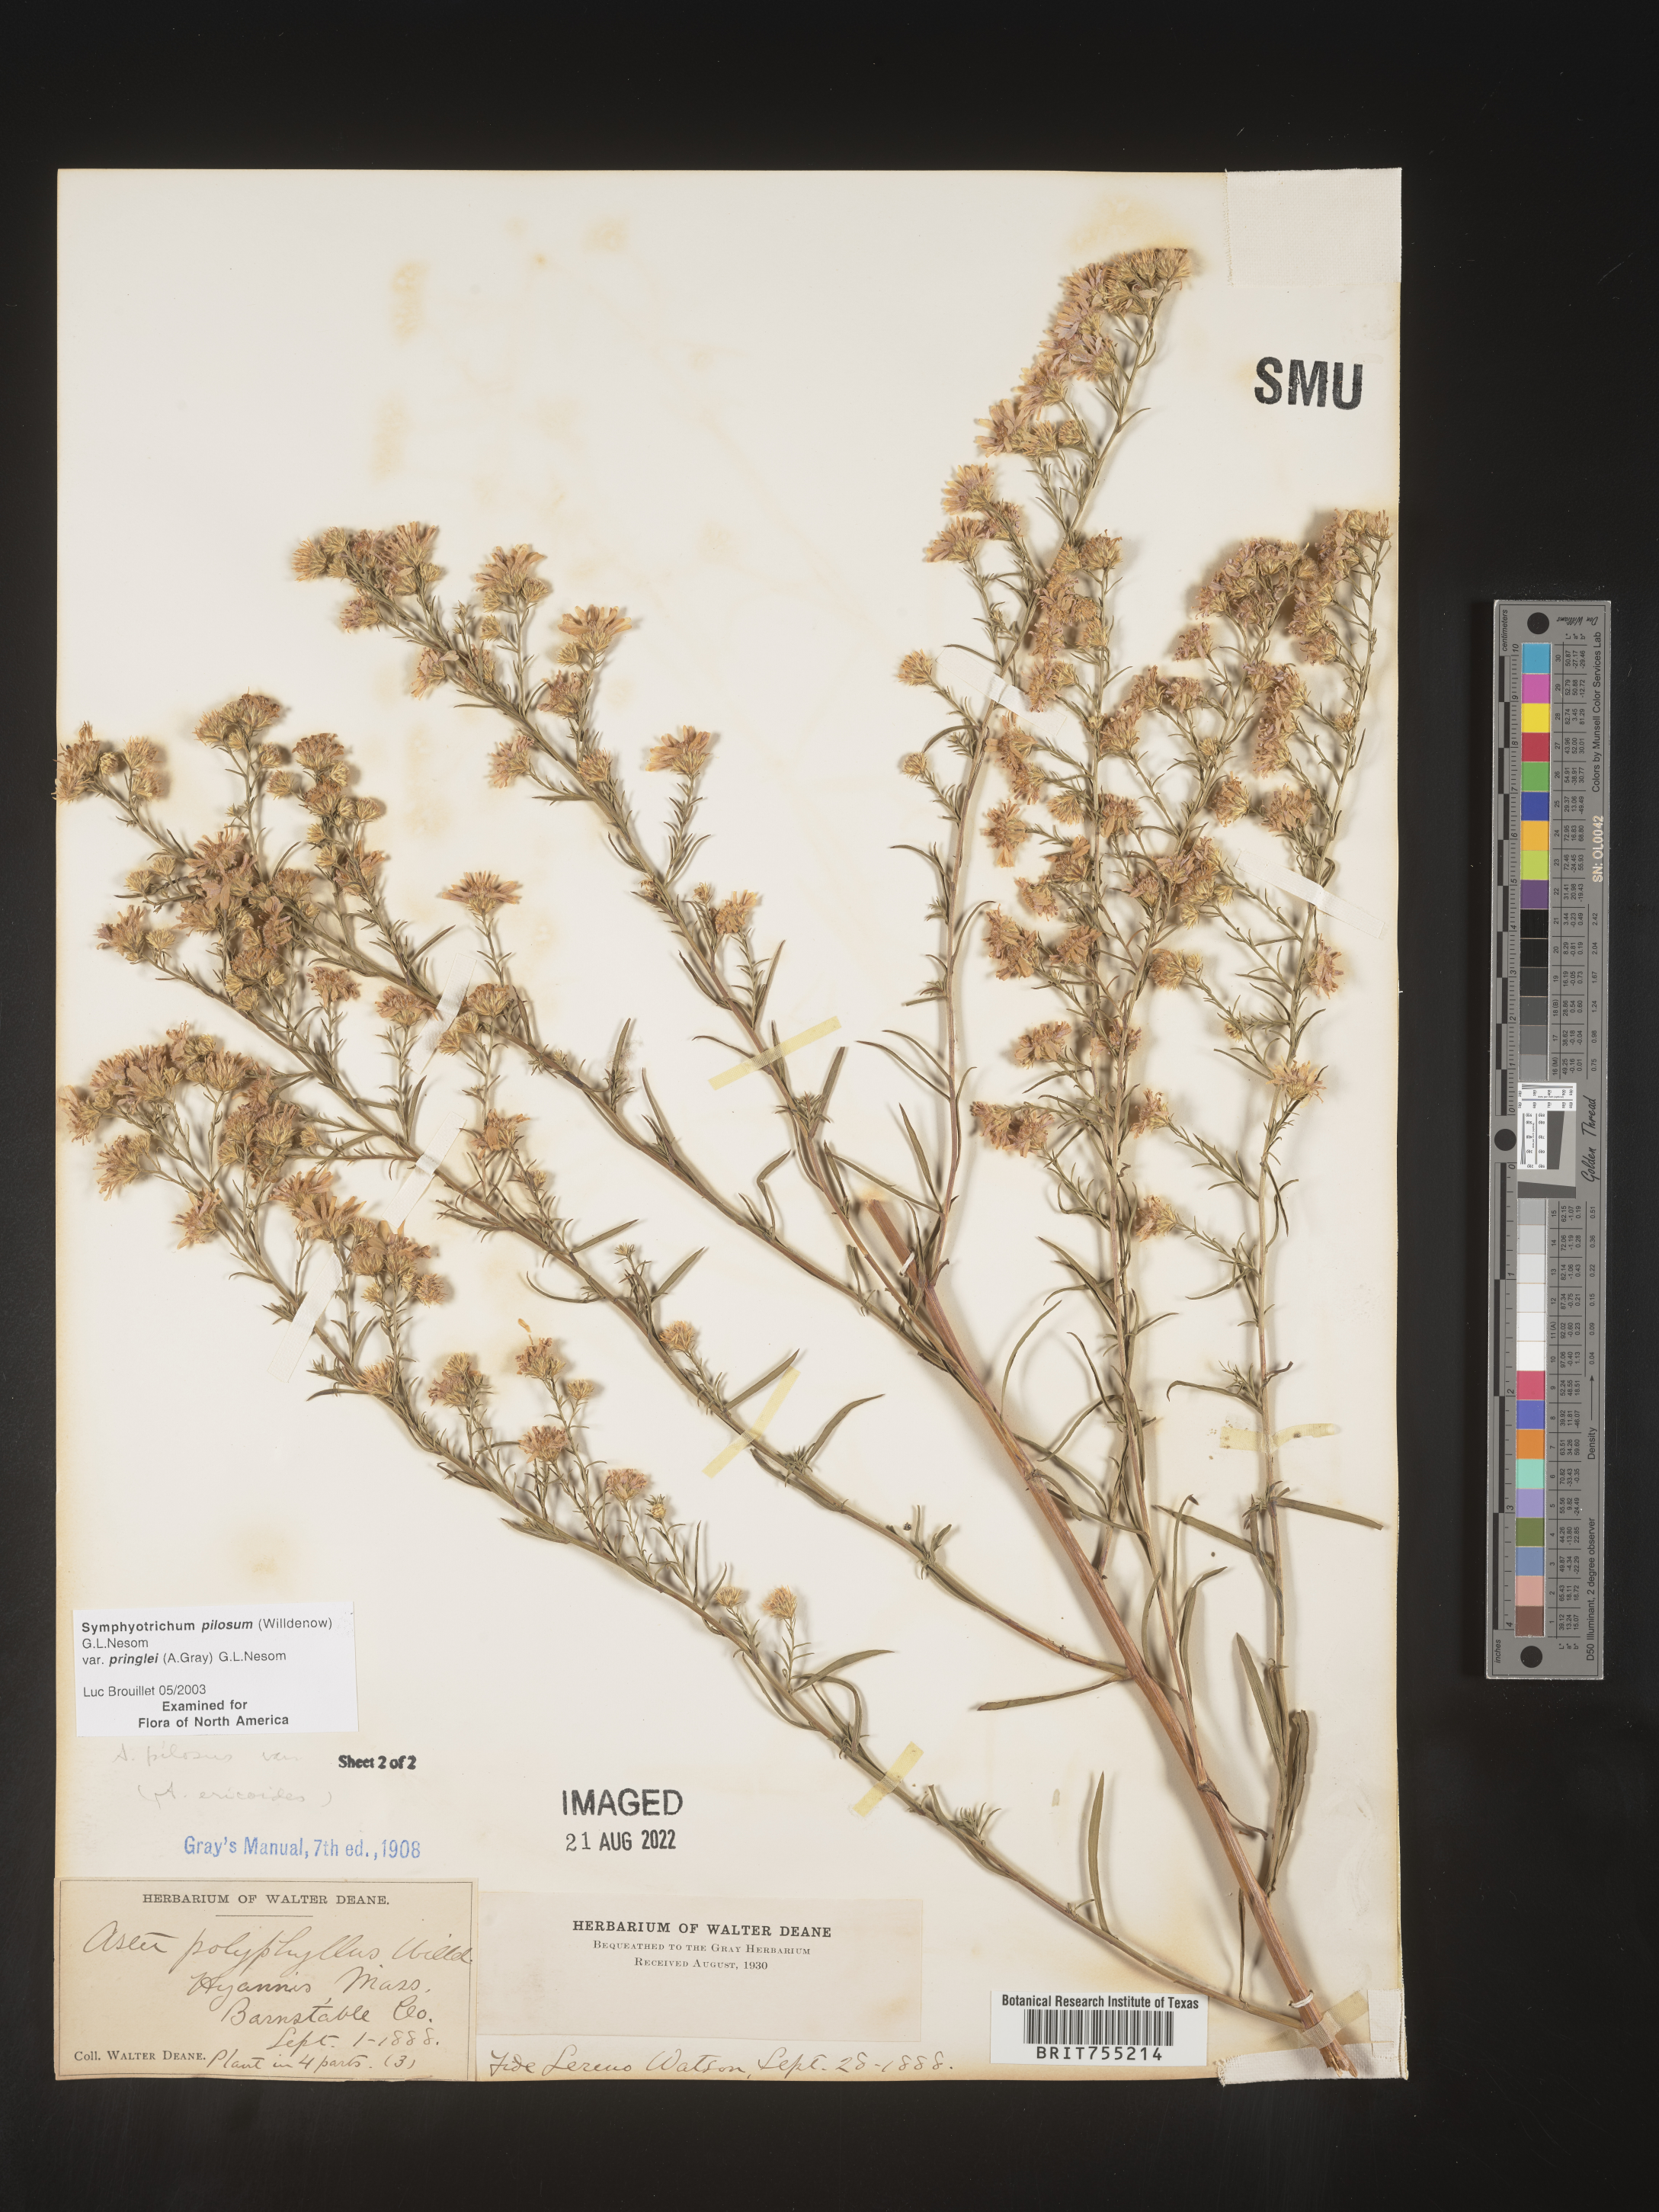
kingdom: Plantae
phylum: Tracheophyta
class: Magnoliopsida
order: Asterales
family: Asteraceae
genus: Symphyotrichum
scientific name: Symphyotrichum pilosum
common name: Awl aster
